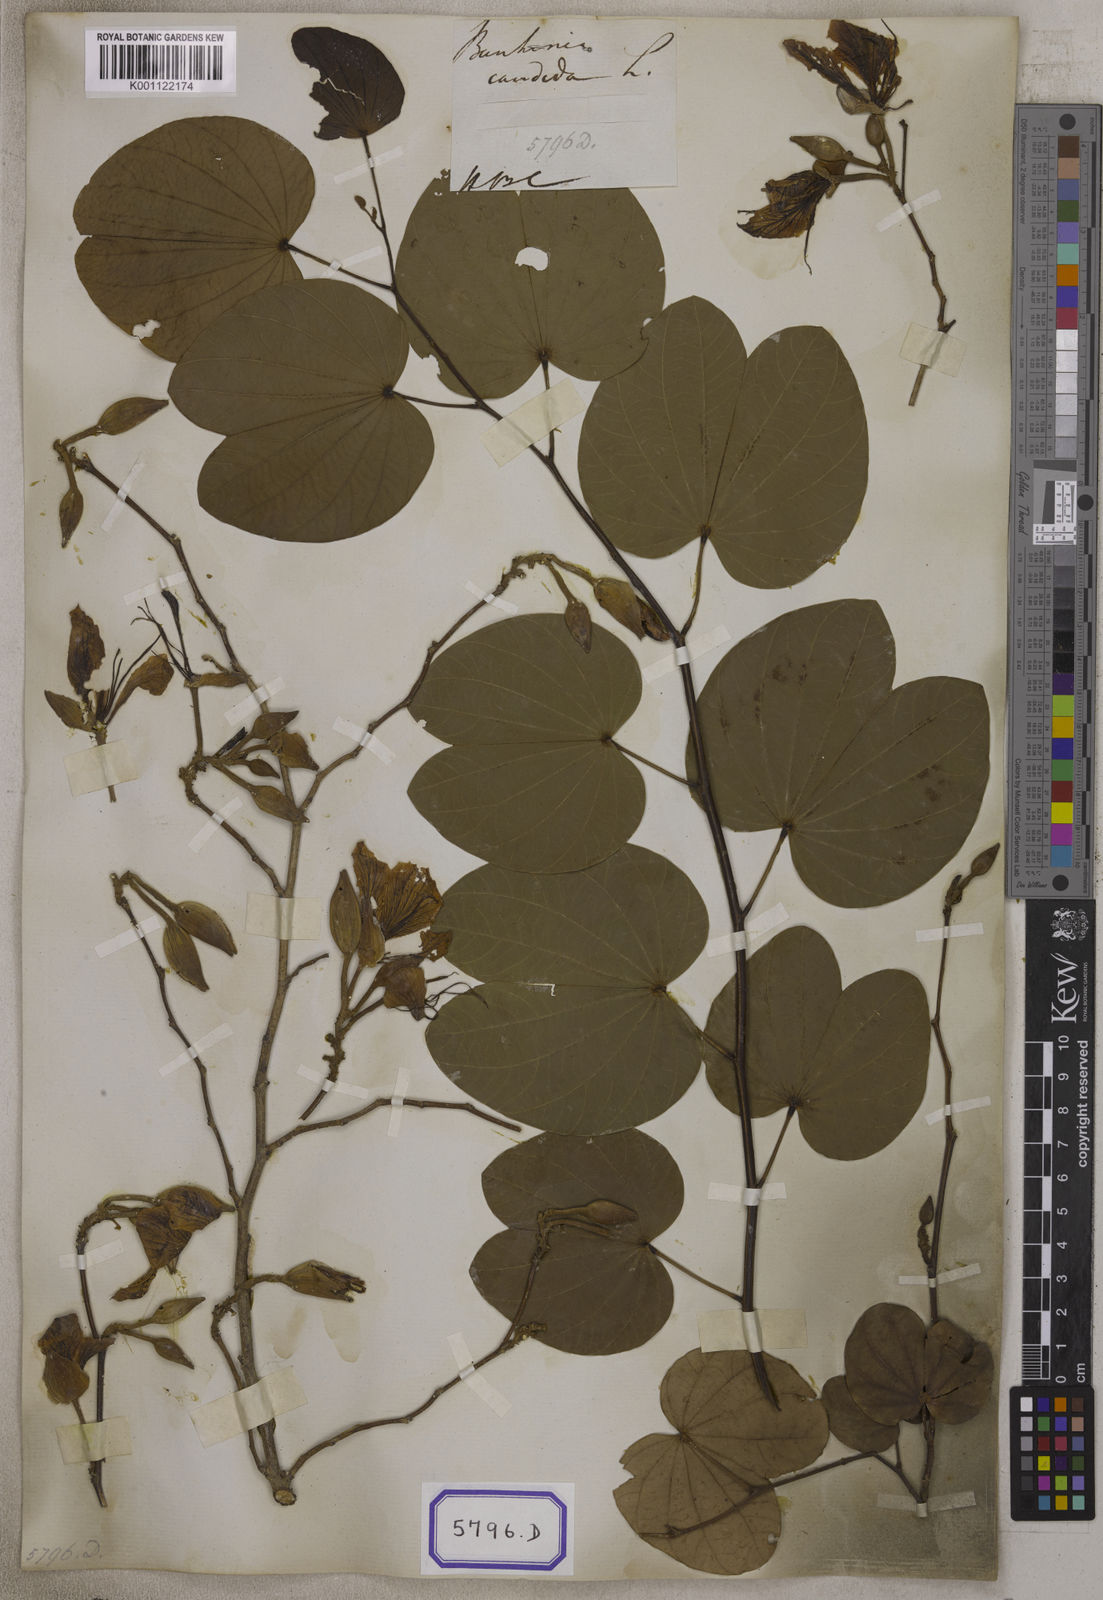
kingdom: Plantae
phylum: Tracheophyta
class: Magnoliopsida
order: Fabales
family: Fabaceae
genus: Bauhinia
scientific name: Bauhinia variegata
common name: Mountain ebony
